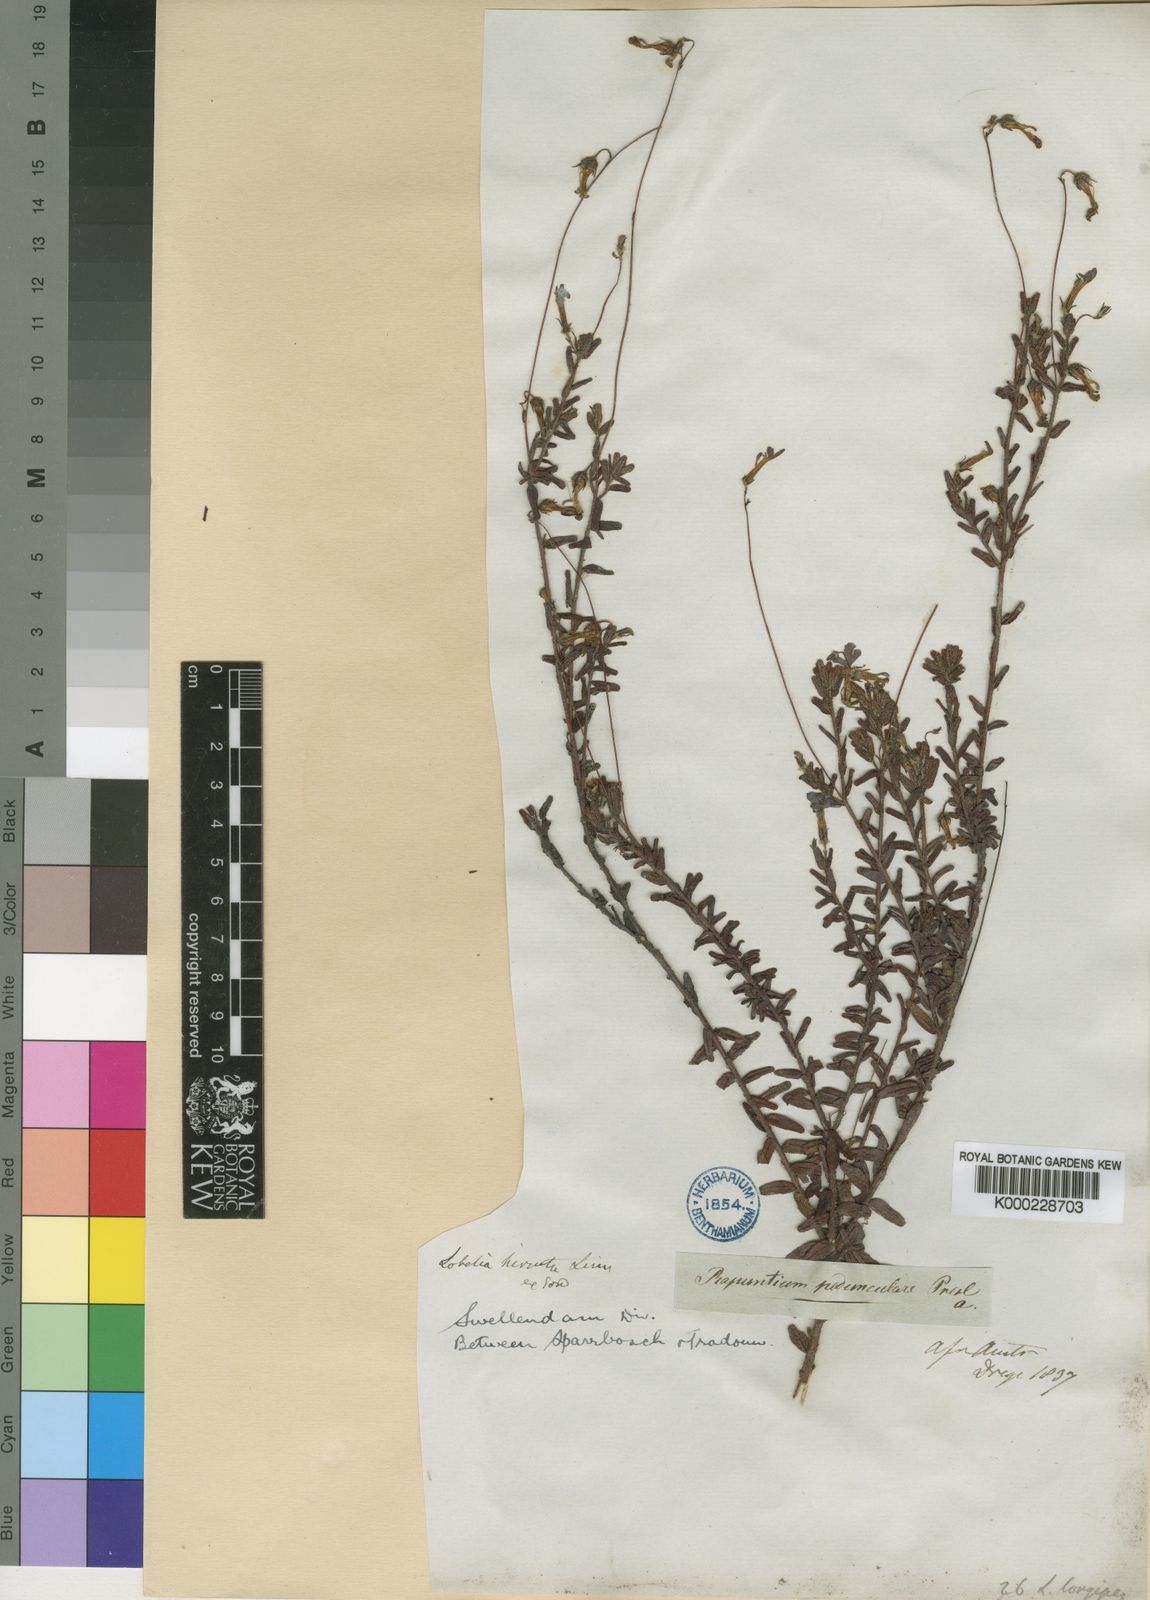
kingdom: Plantae
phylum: Tracheophyta
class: Magnoliopsida
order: Asterales
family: Campanulaceae
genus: Lobelia
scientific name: Lobelia neglecta
